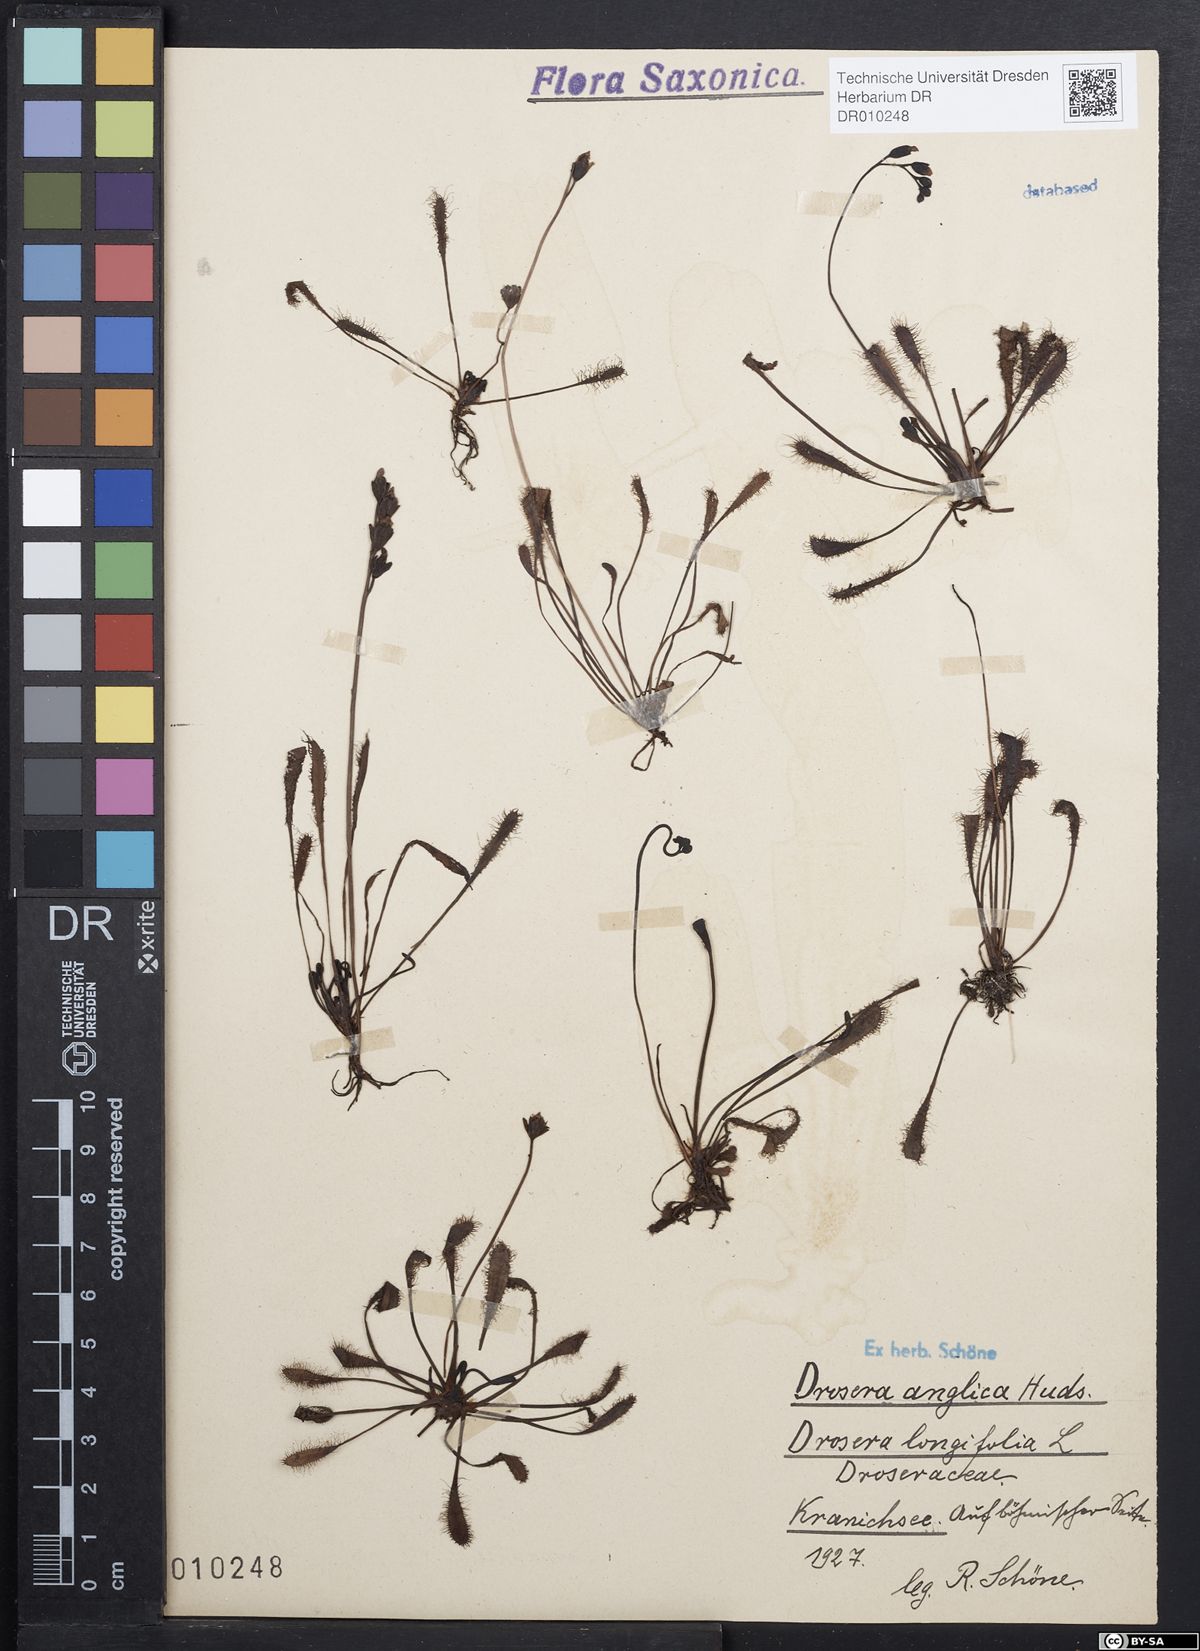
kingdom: Plantae
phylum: Tracheophyta
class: Magnoliopsida
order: Caryophyllales
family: Droseraceae
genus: Drosera
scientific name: Drosera anglica
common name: Great sundew
